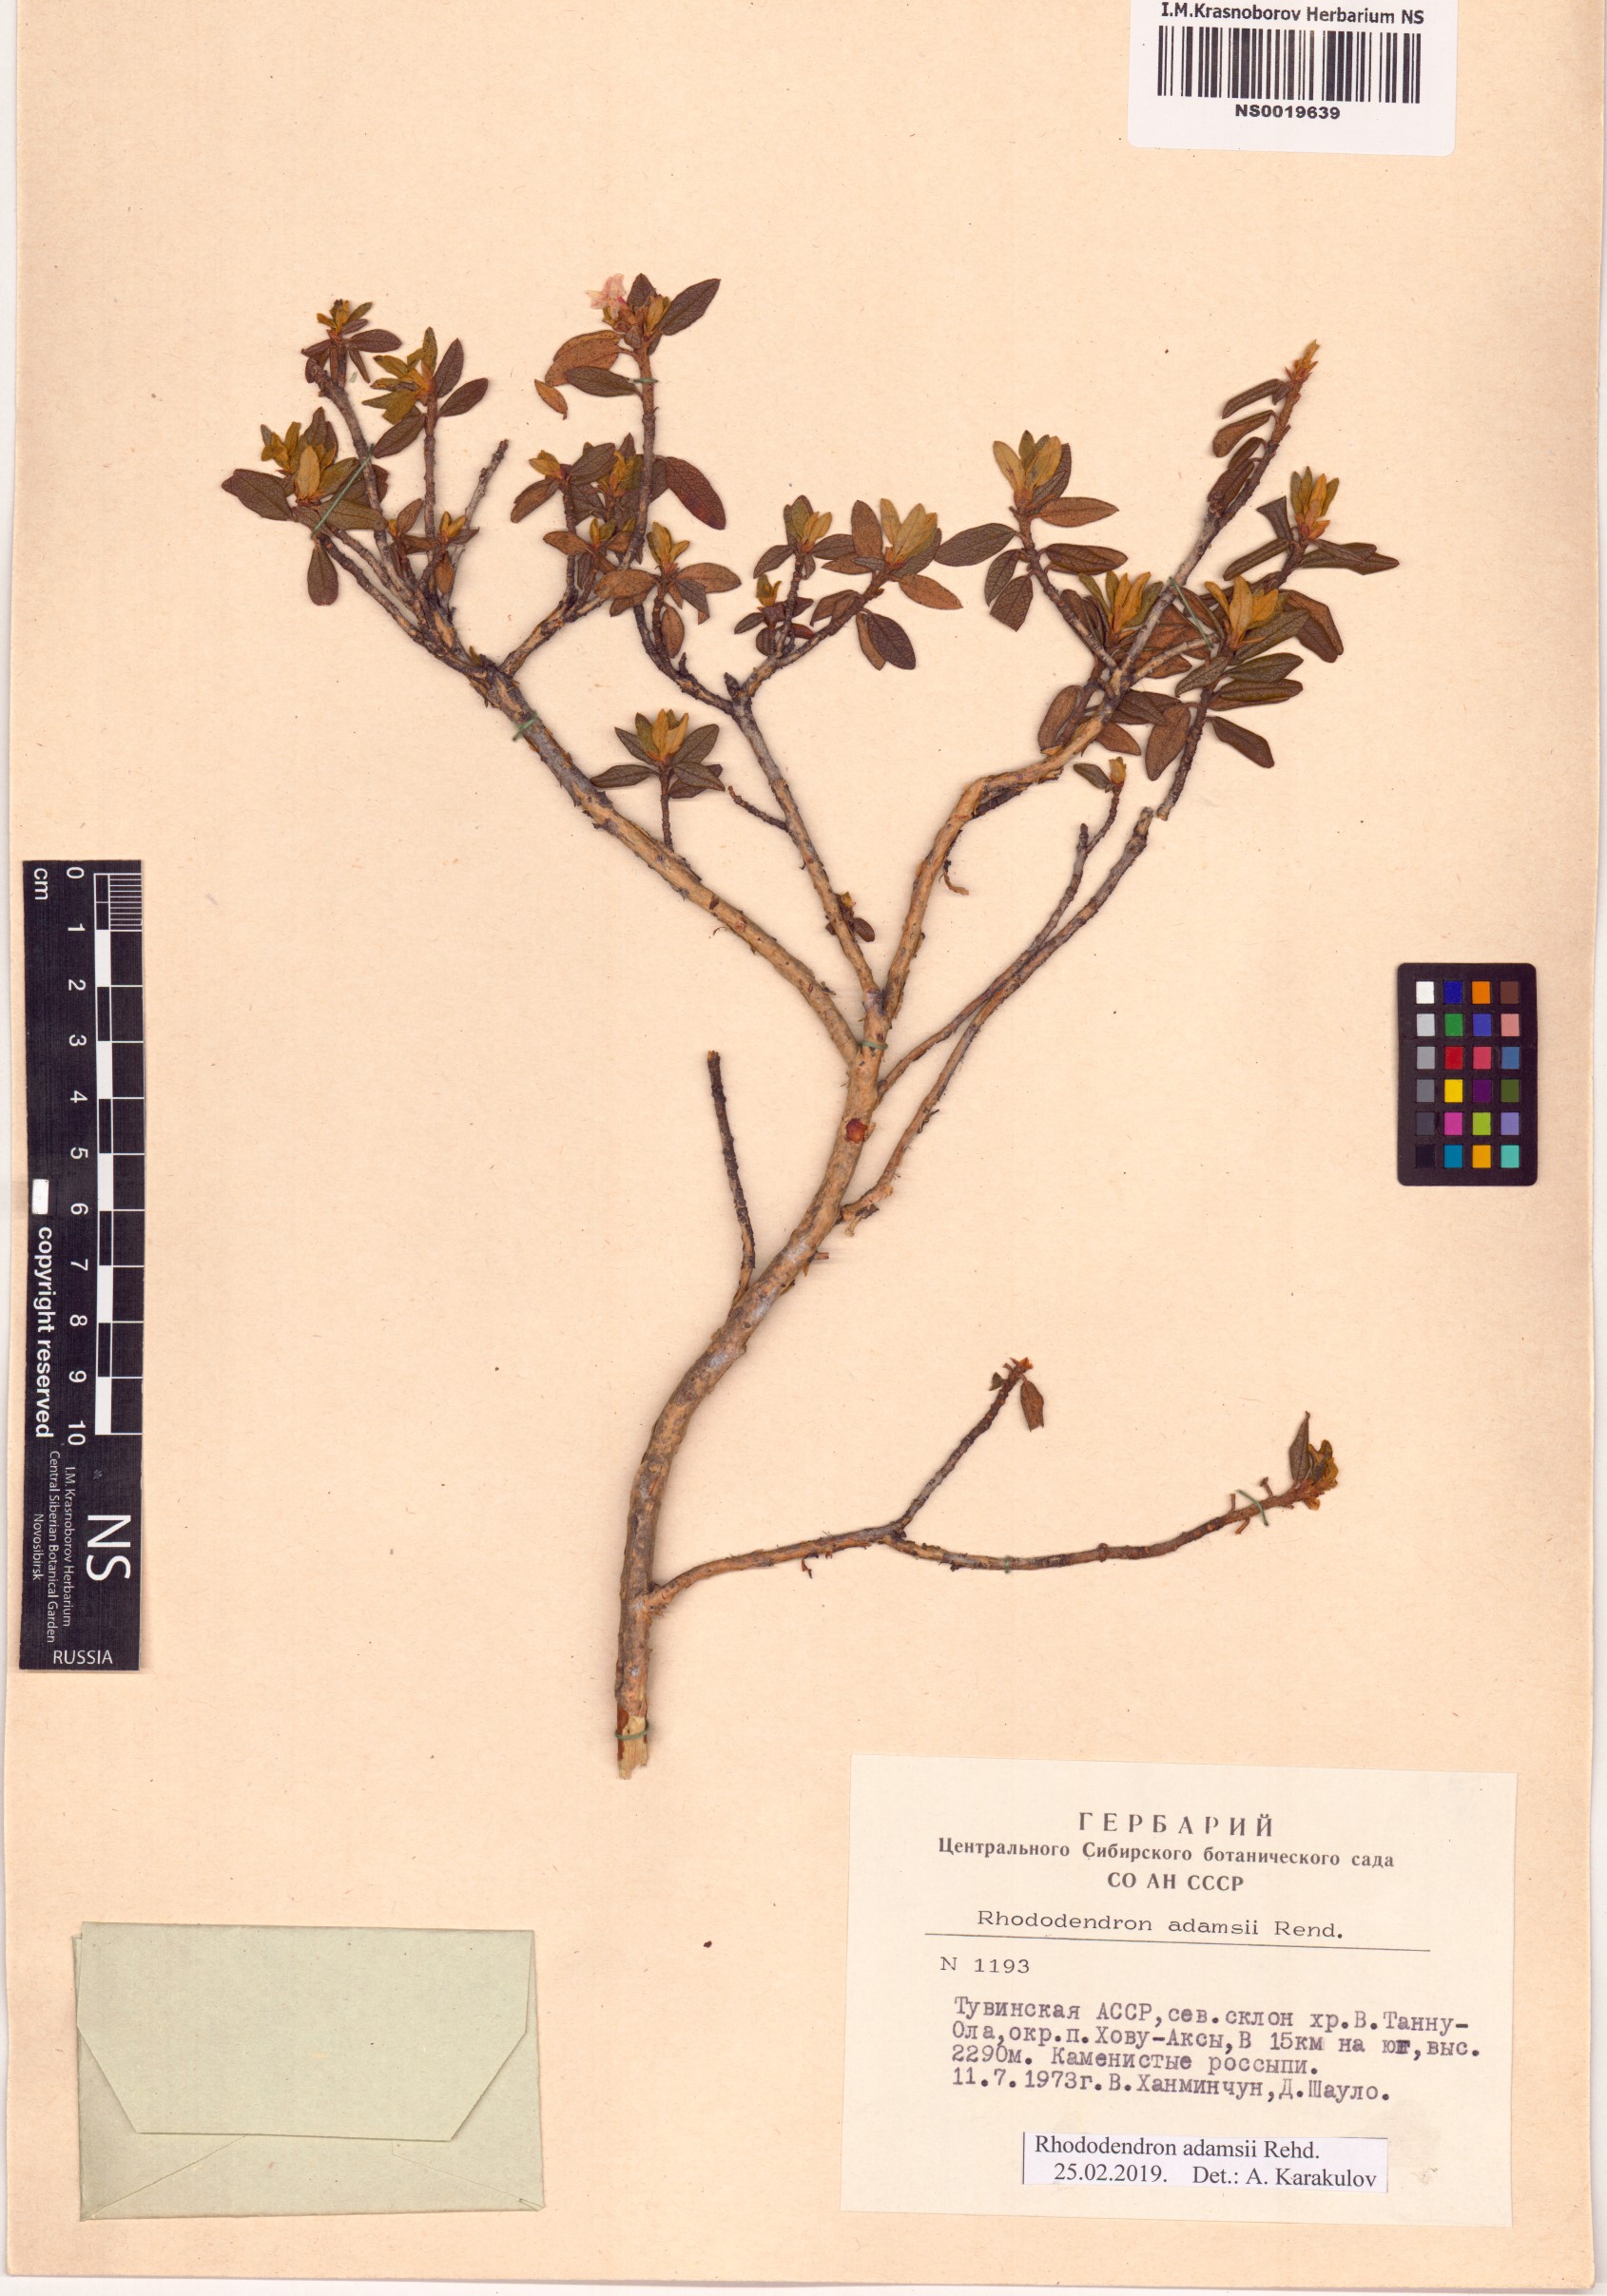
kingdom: Plantae
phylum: Tracheophyta
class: Magnoliopsida
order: Ericales
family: Ericaceae
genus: Rhododendron
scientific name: Rhododendron adamsii
